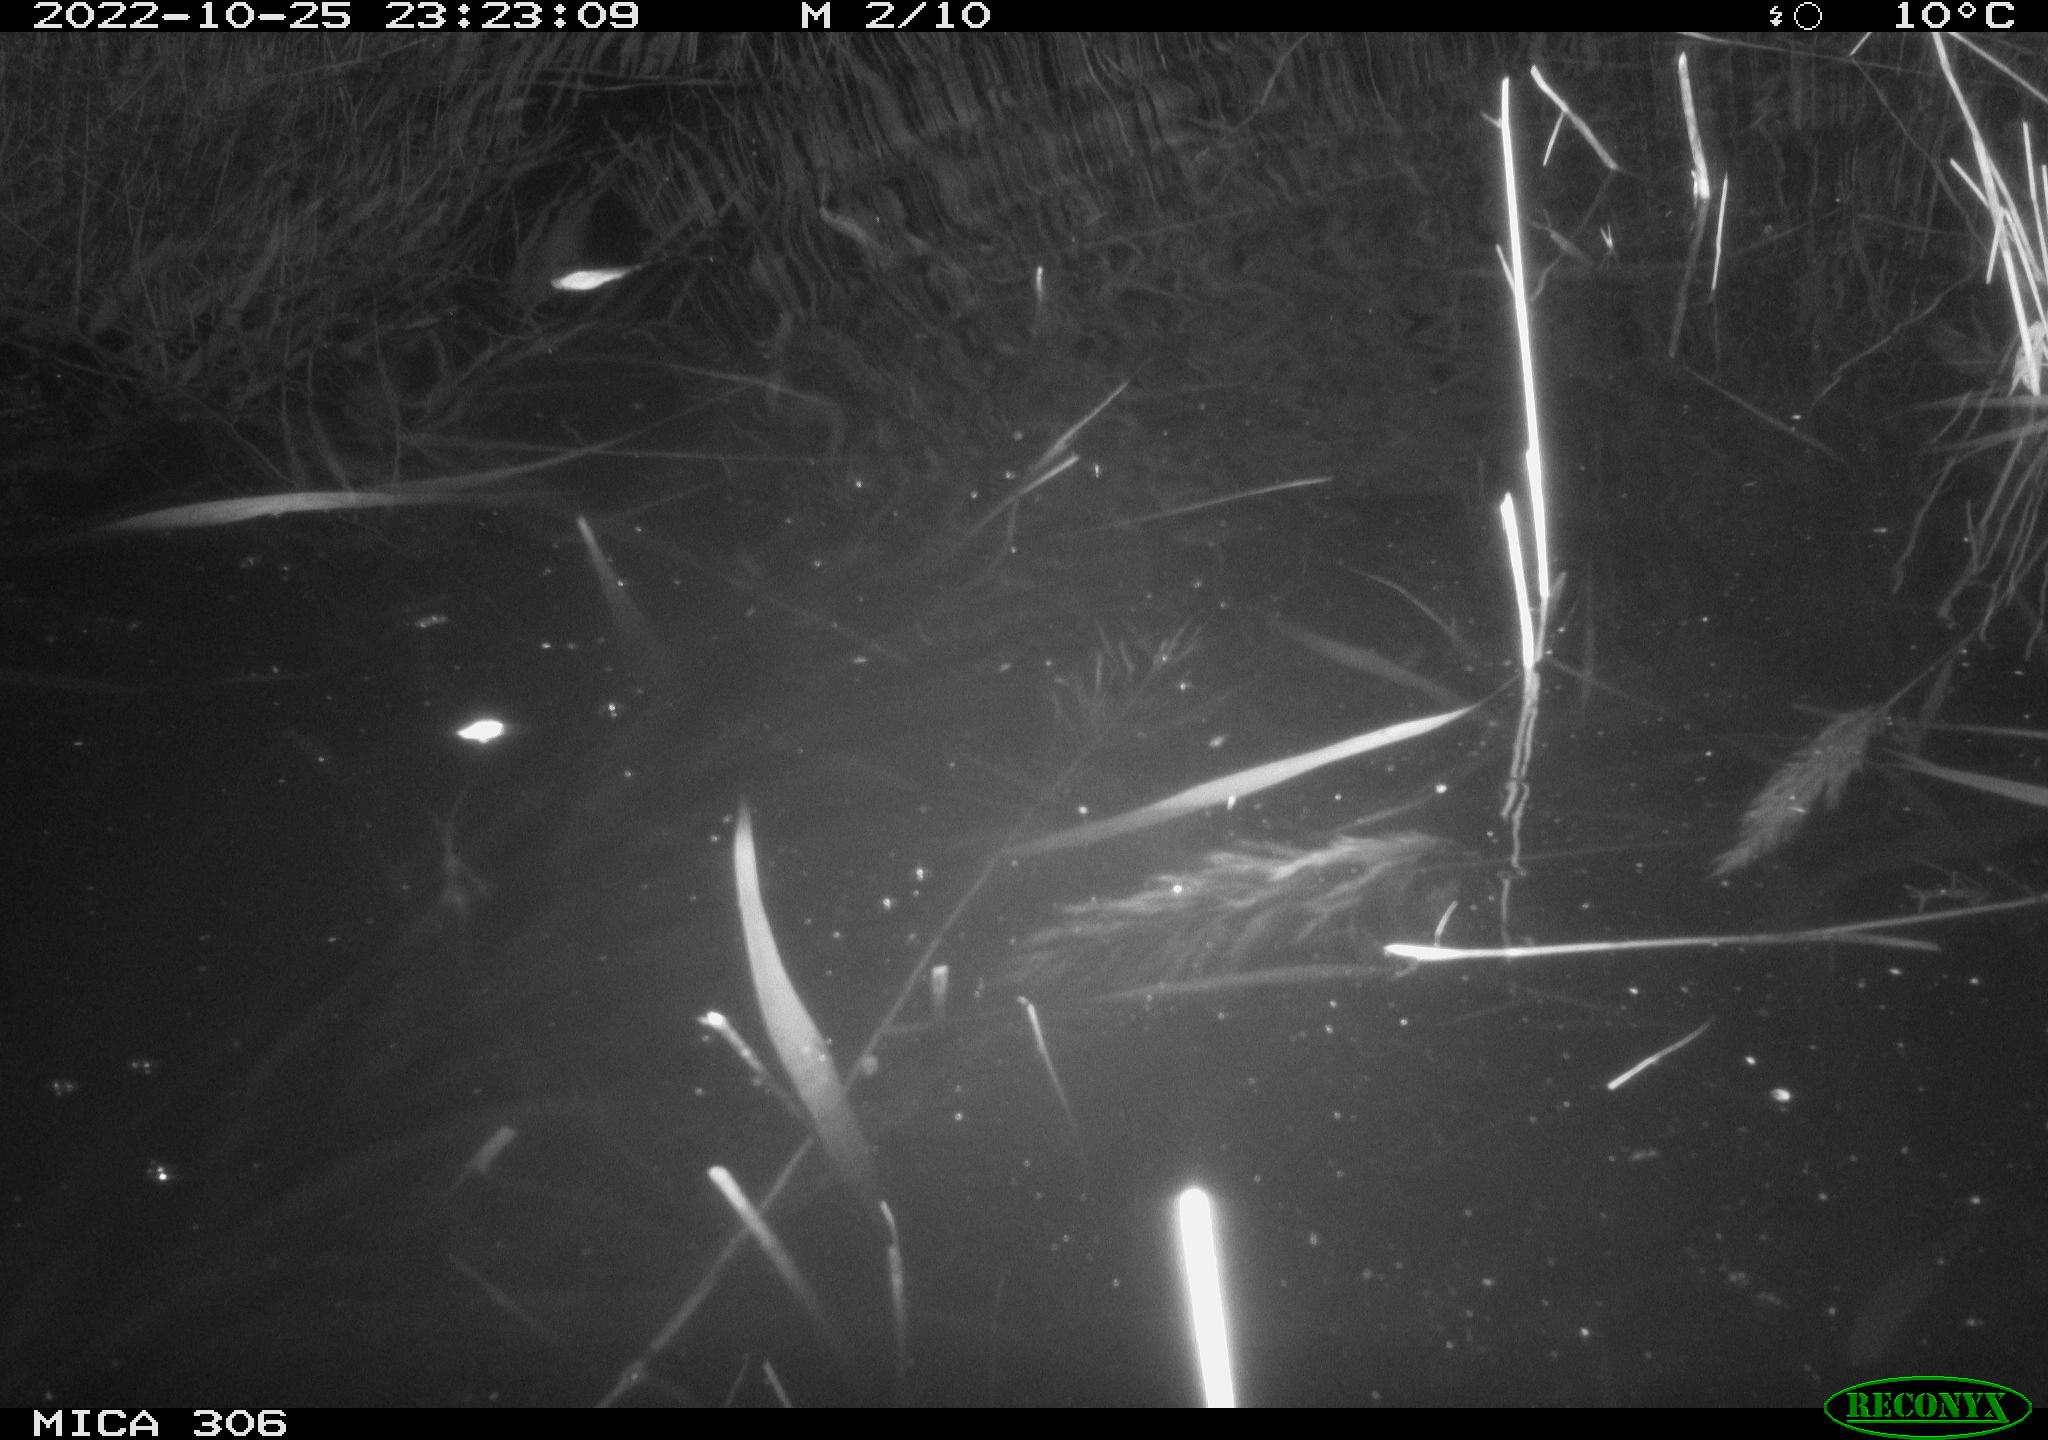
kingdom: Animalia
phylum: Chordata
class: Mammalia
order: Rodentia
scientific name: Rodentia
